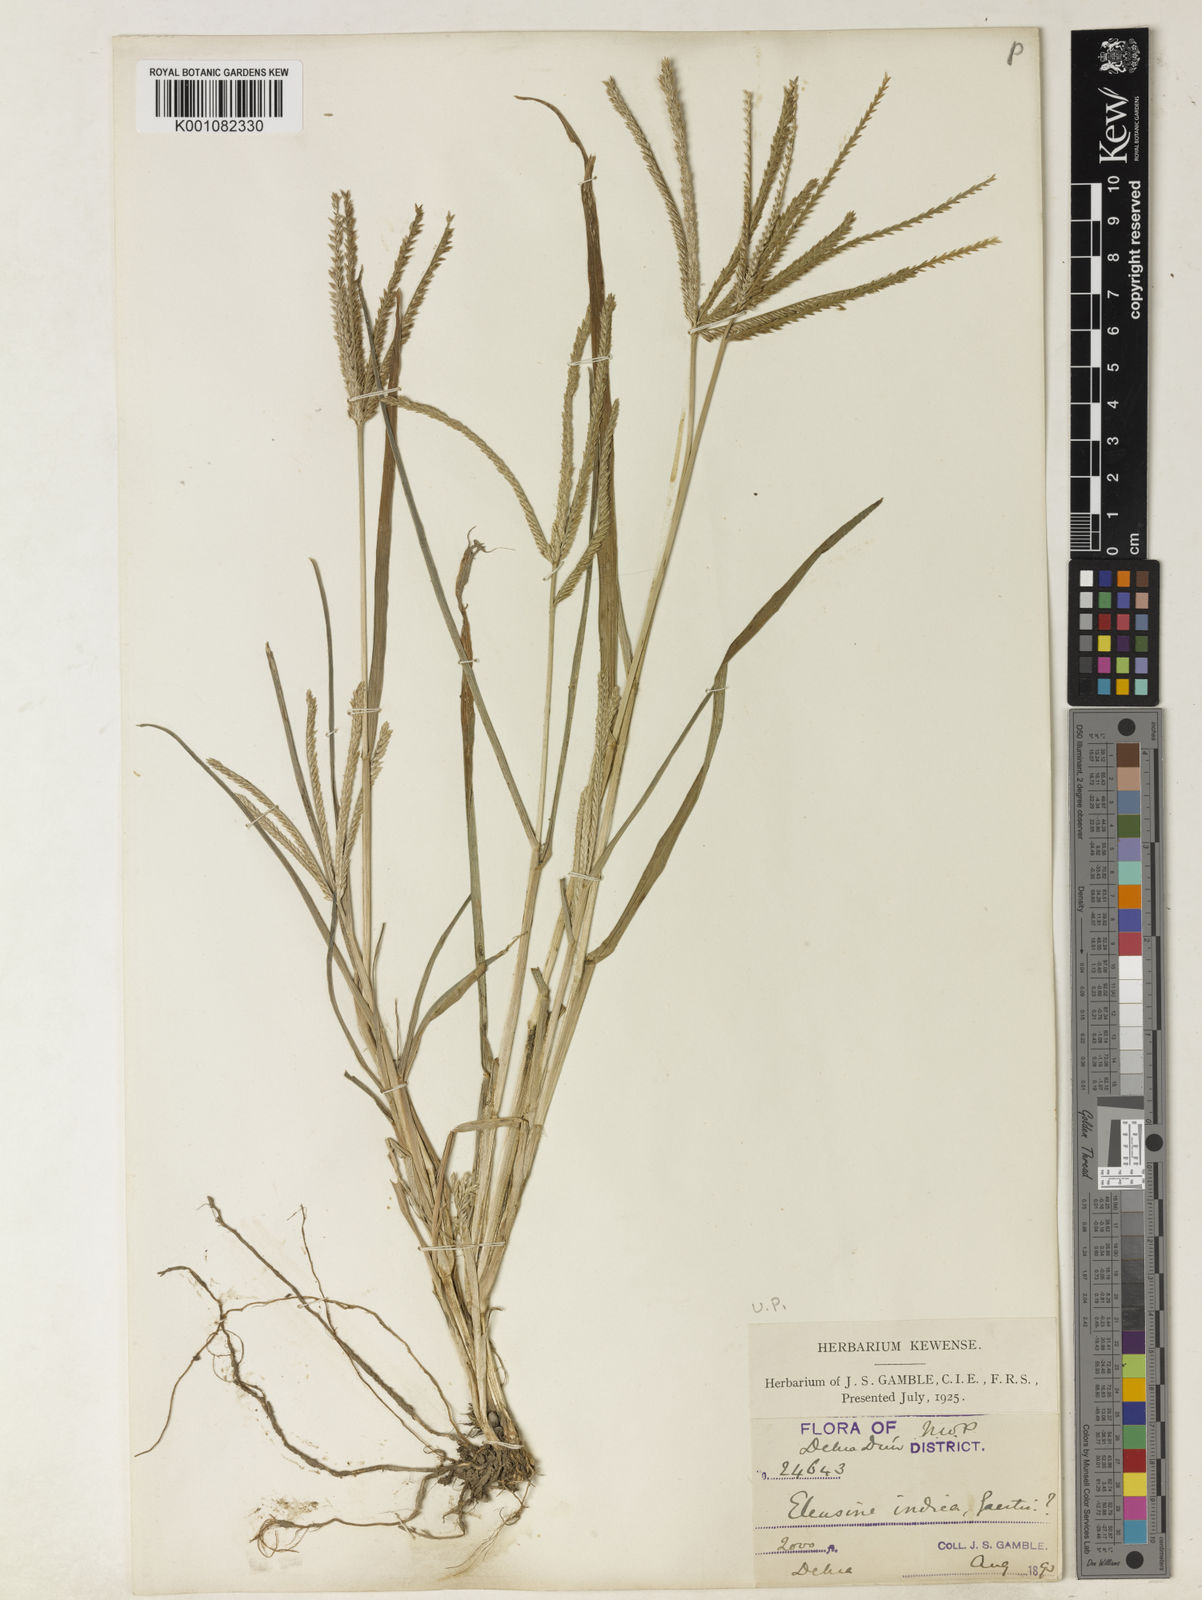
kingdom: Plantae
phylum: Tracheophyta
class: Liliopsida
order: Poales
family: Poaceae
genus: Eleusine
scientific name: Eleusine indica
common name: Yard-grass
